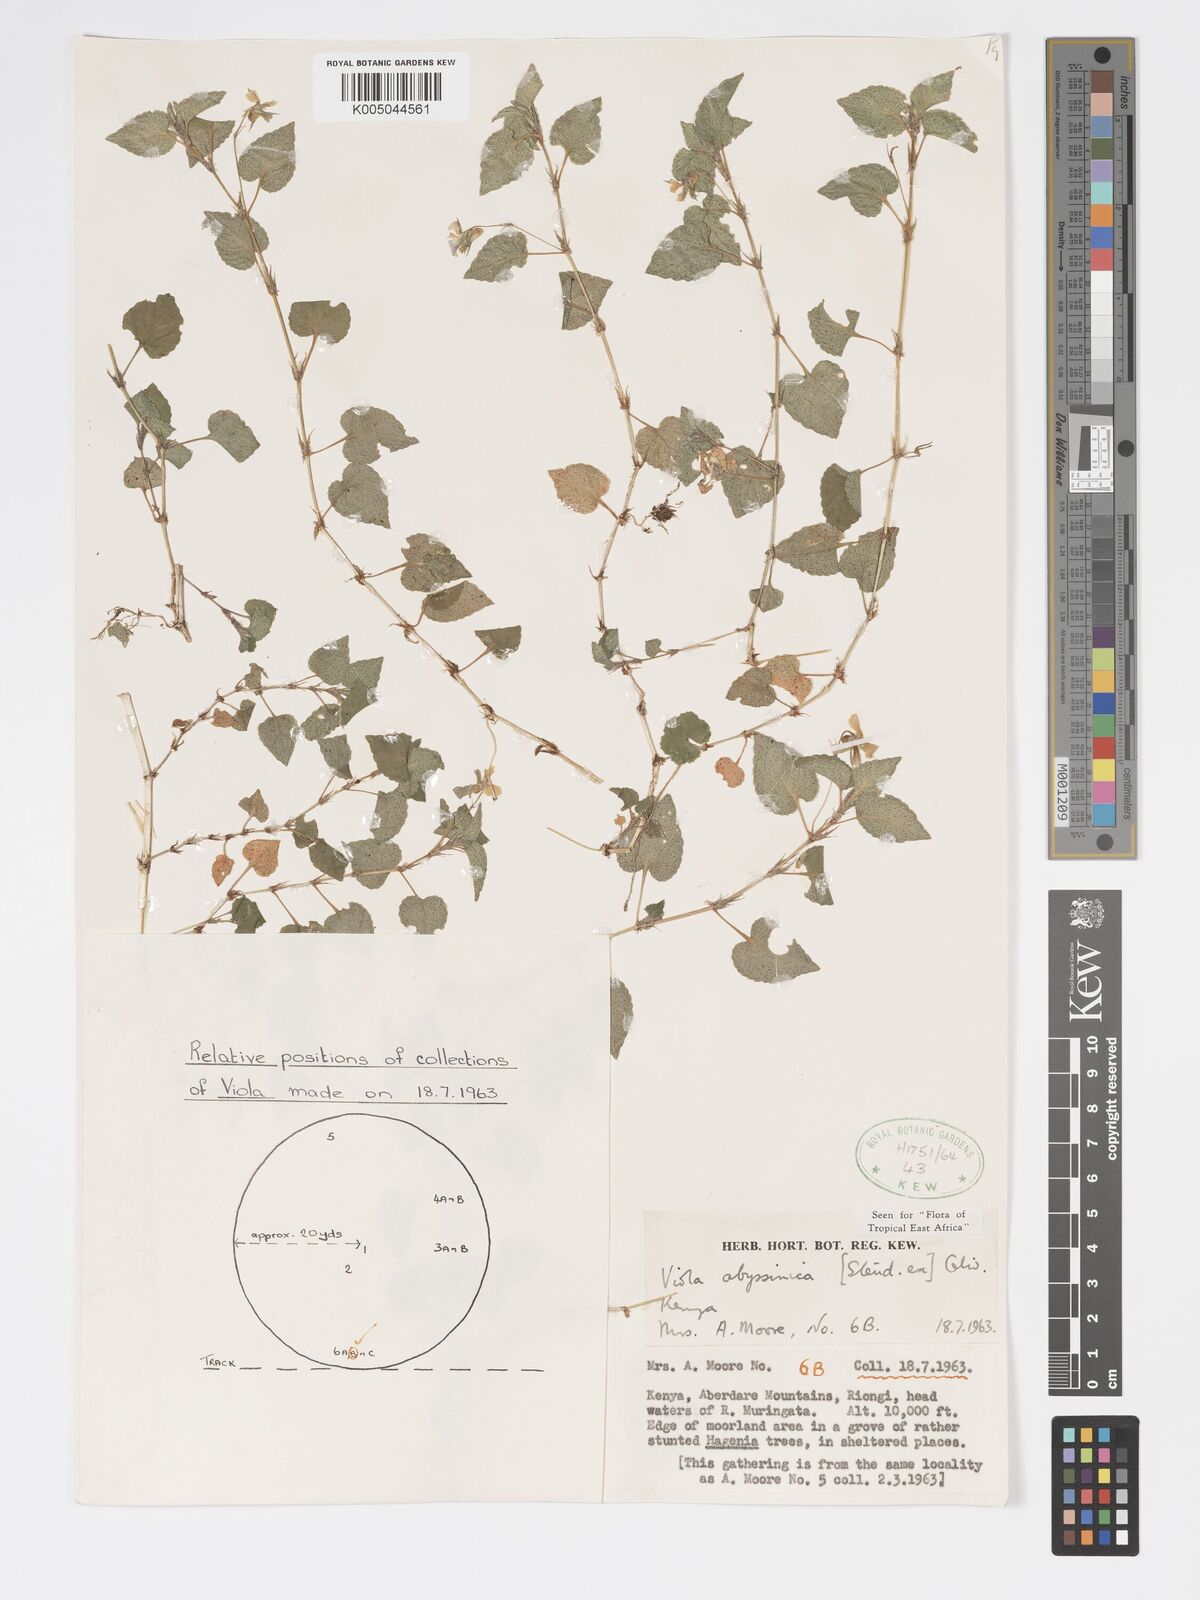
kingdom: Plantae
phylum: Tracheophyta
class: Magnoliopsida
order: Malpighiales
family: Violaceae
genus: Viola
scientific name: Viola abyssinica
